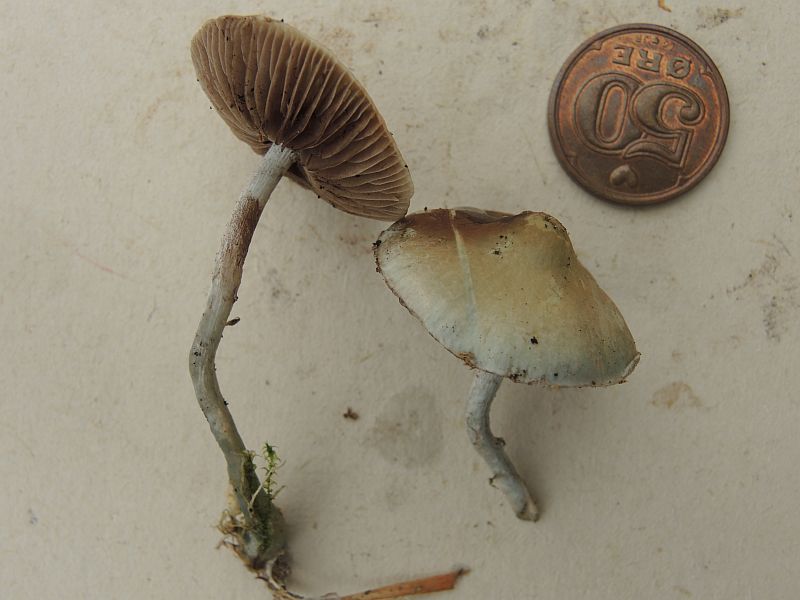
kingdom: Fungi
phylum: Basidiomycota
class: Agaricomycetes
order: Agaricales
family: Strophariaceae
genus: Stropharia
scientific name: Stropharia cyanea
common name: blågrøn bredblad
